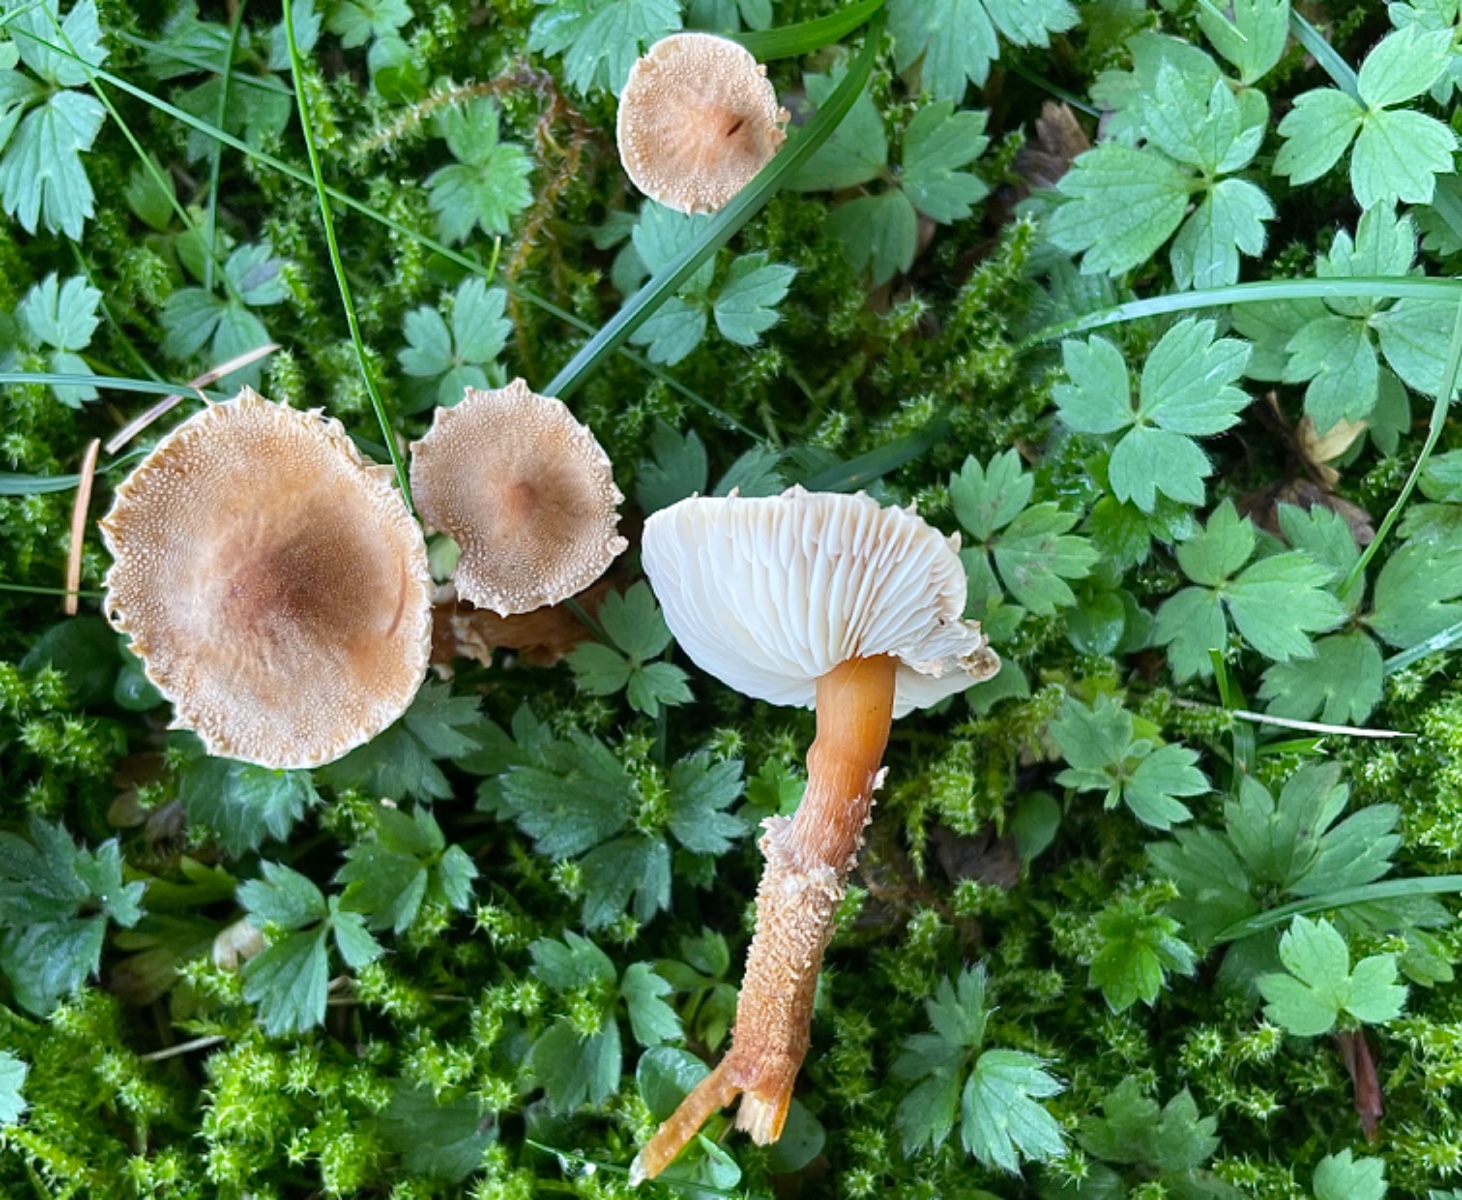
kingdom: Fungi
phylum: Basidiomycota
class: Agaricomycetes
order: Agaricales
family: Tricholomataceae
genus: Cystoderma
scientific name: Cystoderma amianthinum
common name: okkergul grynhat
